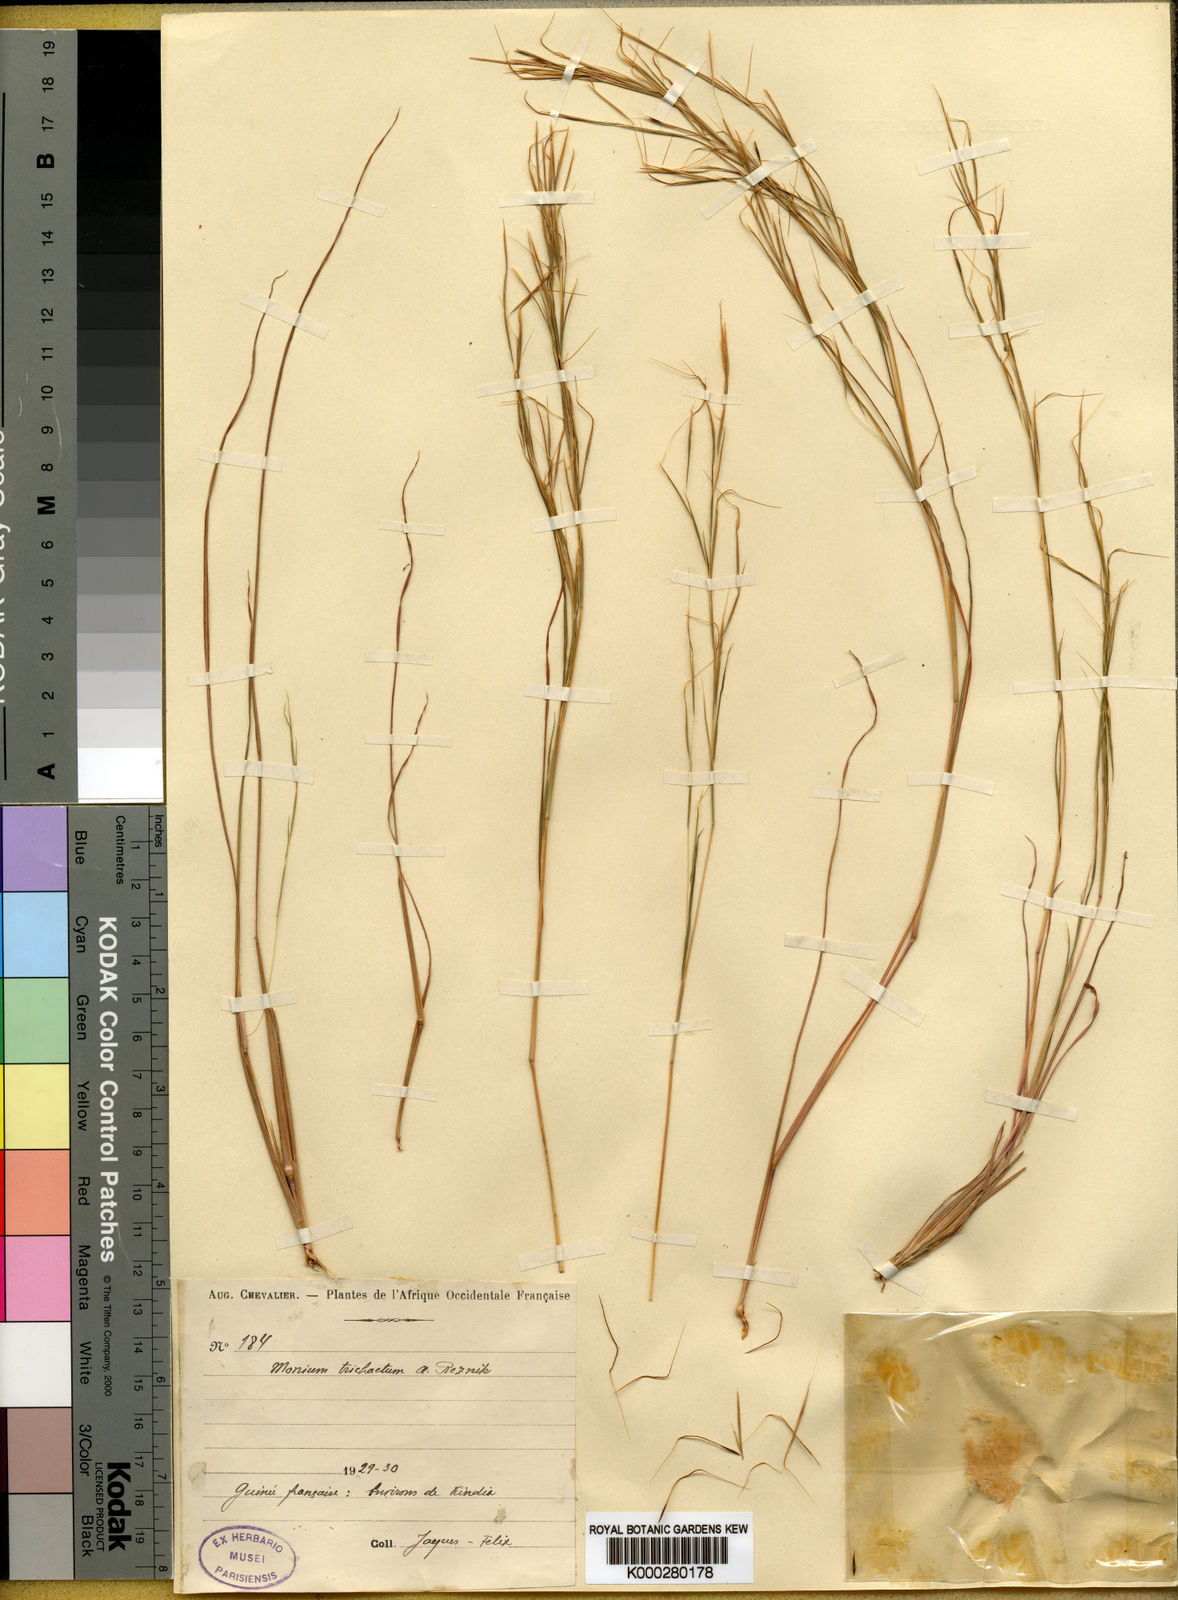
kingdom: Plantae
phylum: Tracheophyta
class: Liliopsida
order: Poales
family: Poaceae
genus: Anadelphia
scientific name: Anadelphia trichaeta
